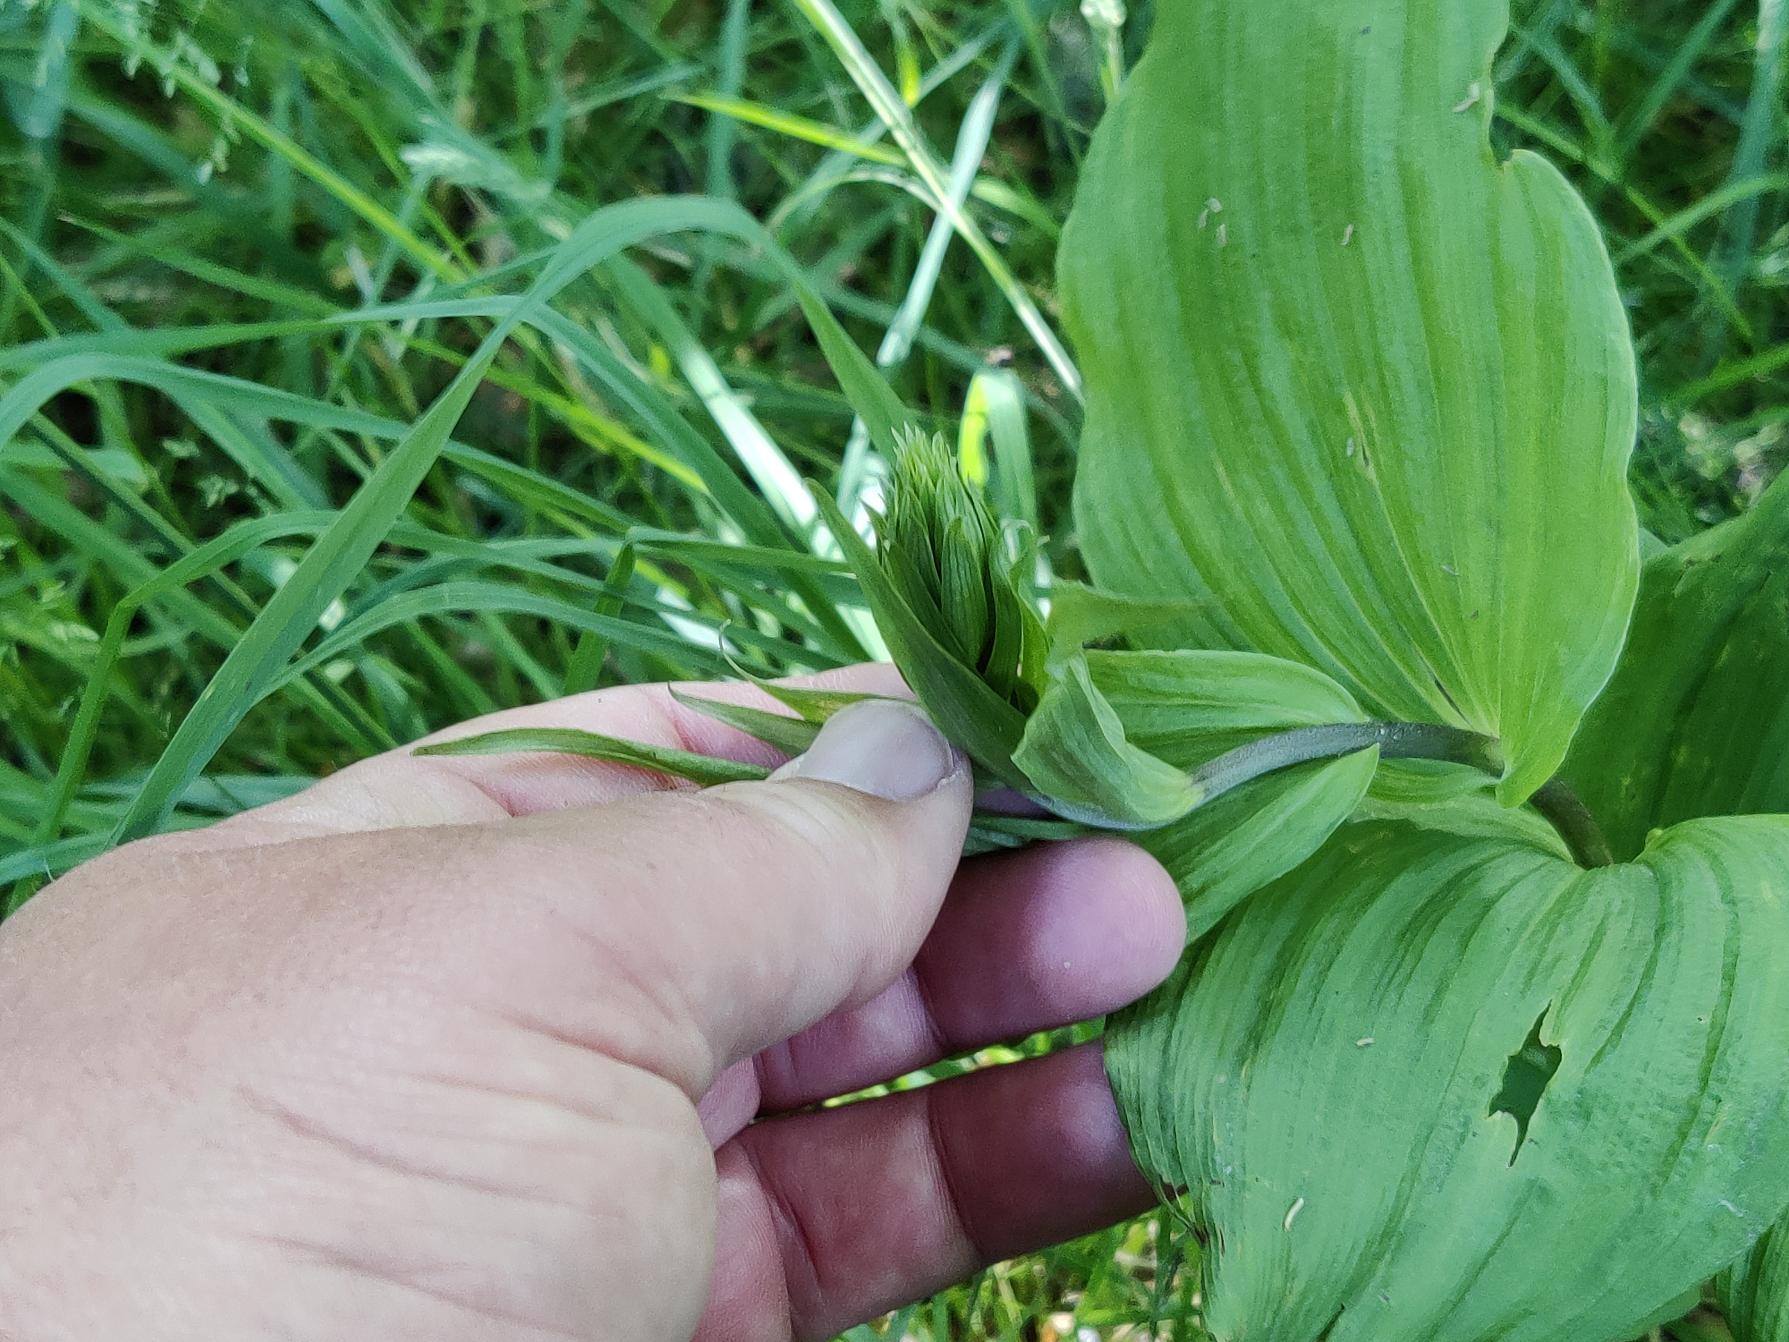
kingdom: Plantae
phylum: Tracheophyta
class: Liliopsida
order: Asparagales
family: Orchidaceae
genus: Epipactis
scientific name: Epipactis helleborine
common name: Skov-hullæbe
